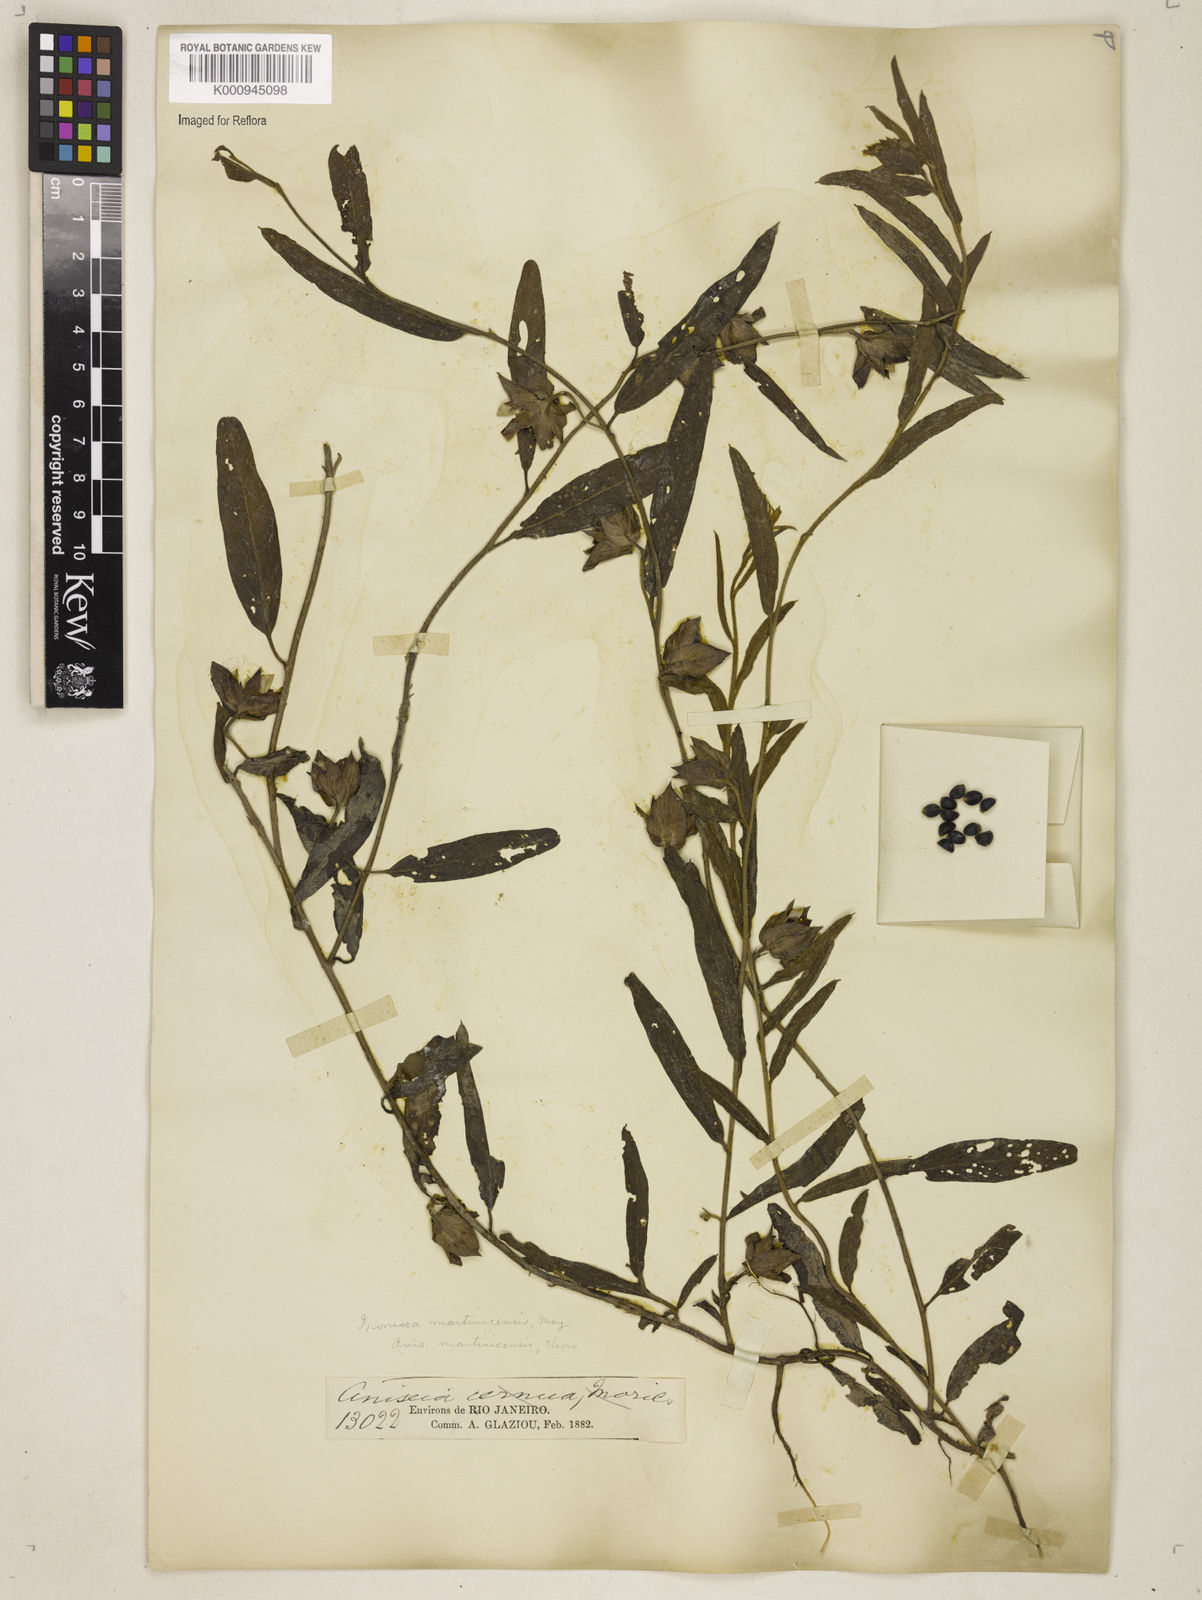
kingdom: Plantae
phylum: Tracheophyta
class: Magnoliopsida
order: Solanales
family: Convolvulaceae
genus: Aniseia
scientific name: Aniseia martinicensis
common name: Kulayadambu
